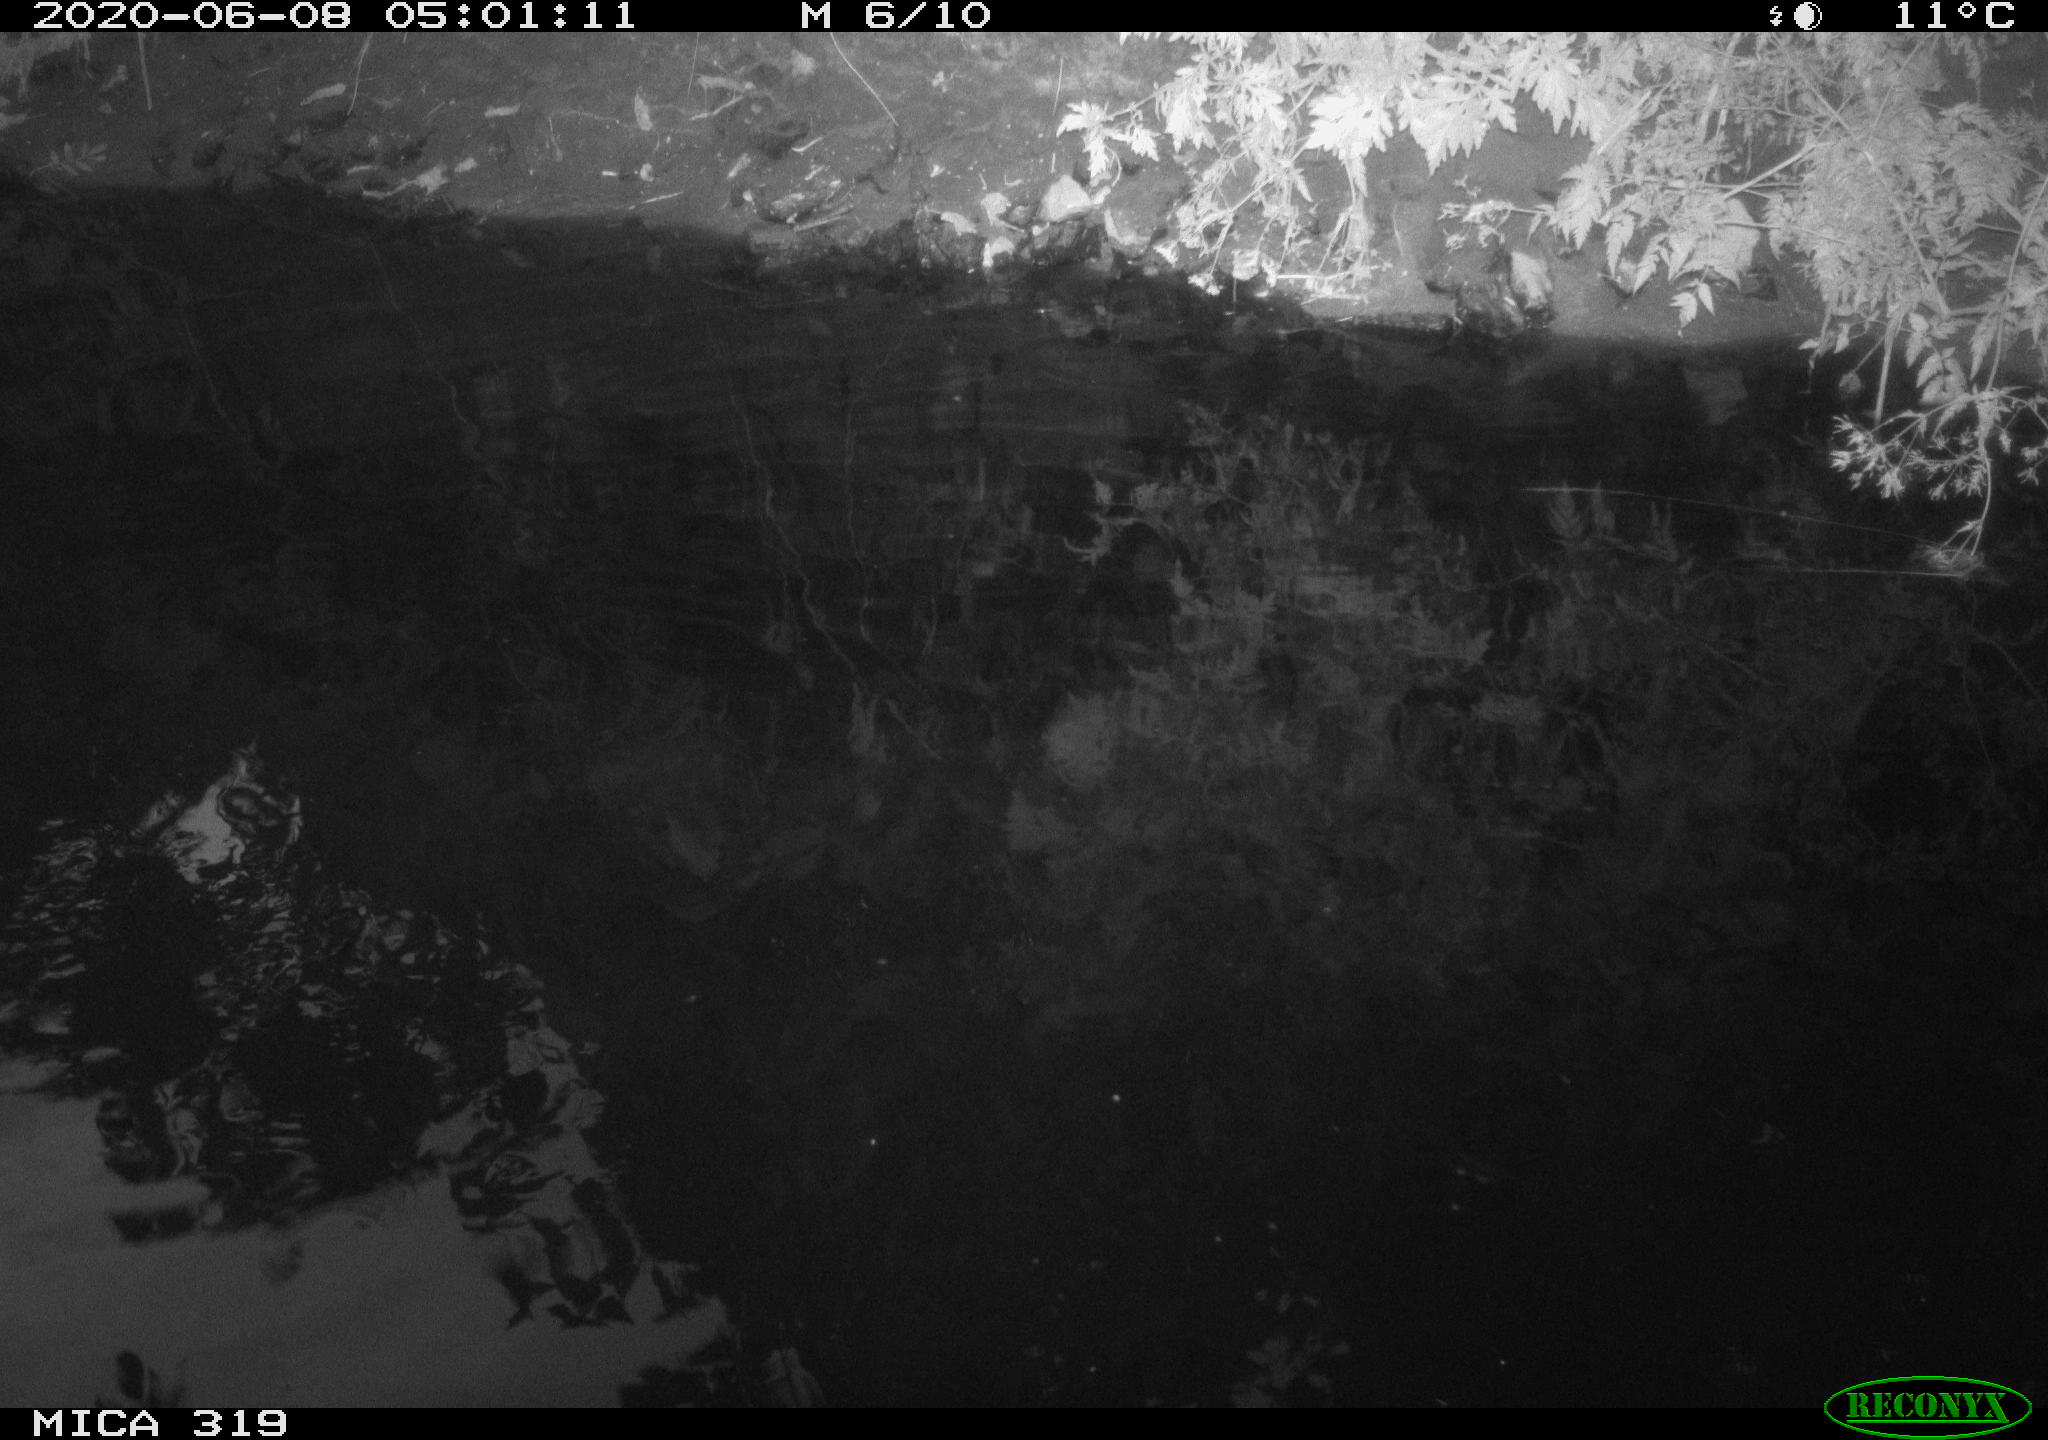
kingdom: Animalia
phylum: Chordata
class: Aves
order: Anseriformes
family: Anatidae
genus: Anas
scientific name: Anas platyrhynchos
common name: Mallard
